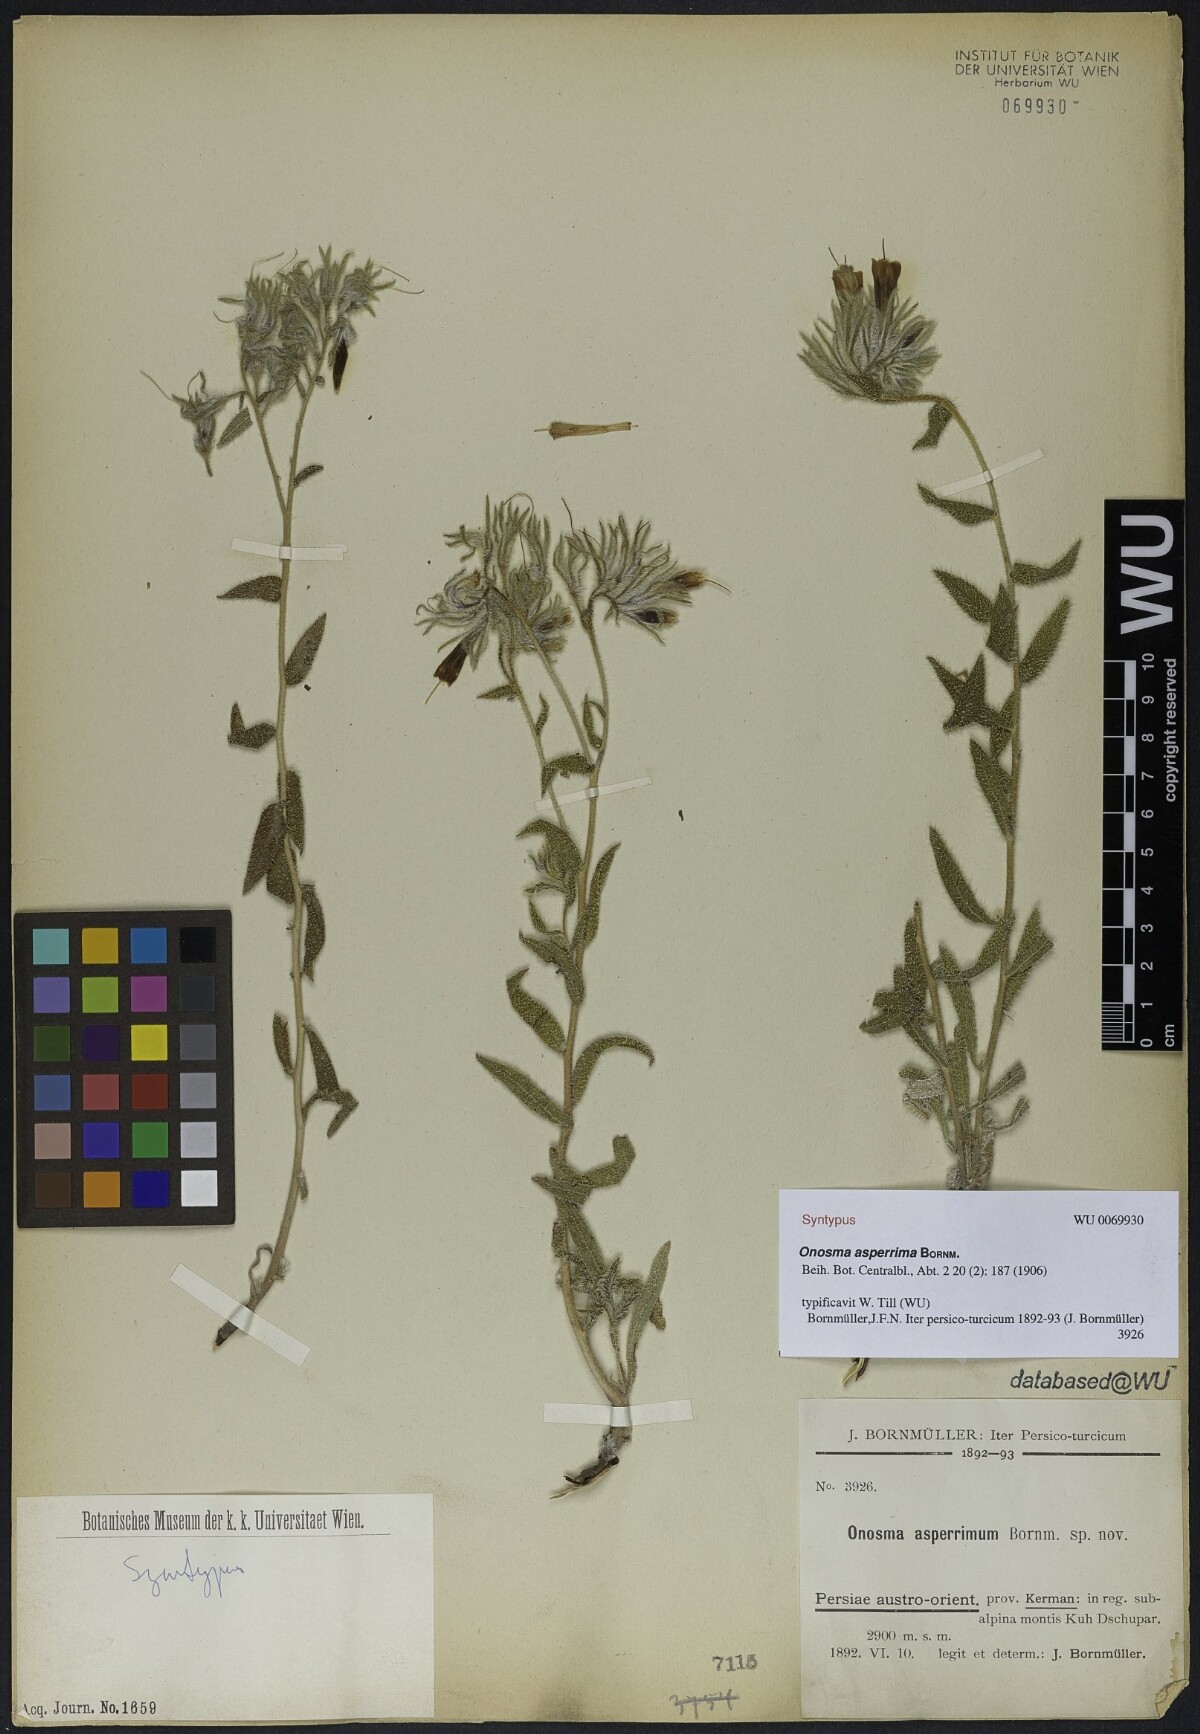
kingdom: Plantae
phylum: Tracheophyta
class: Magnoliopsida
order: Boraginales
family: Boraginaceae
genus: Onosma
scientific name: Onosma asperrima
